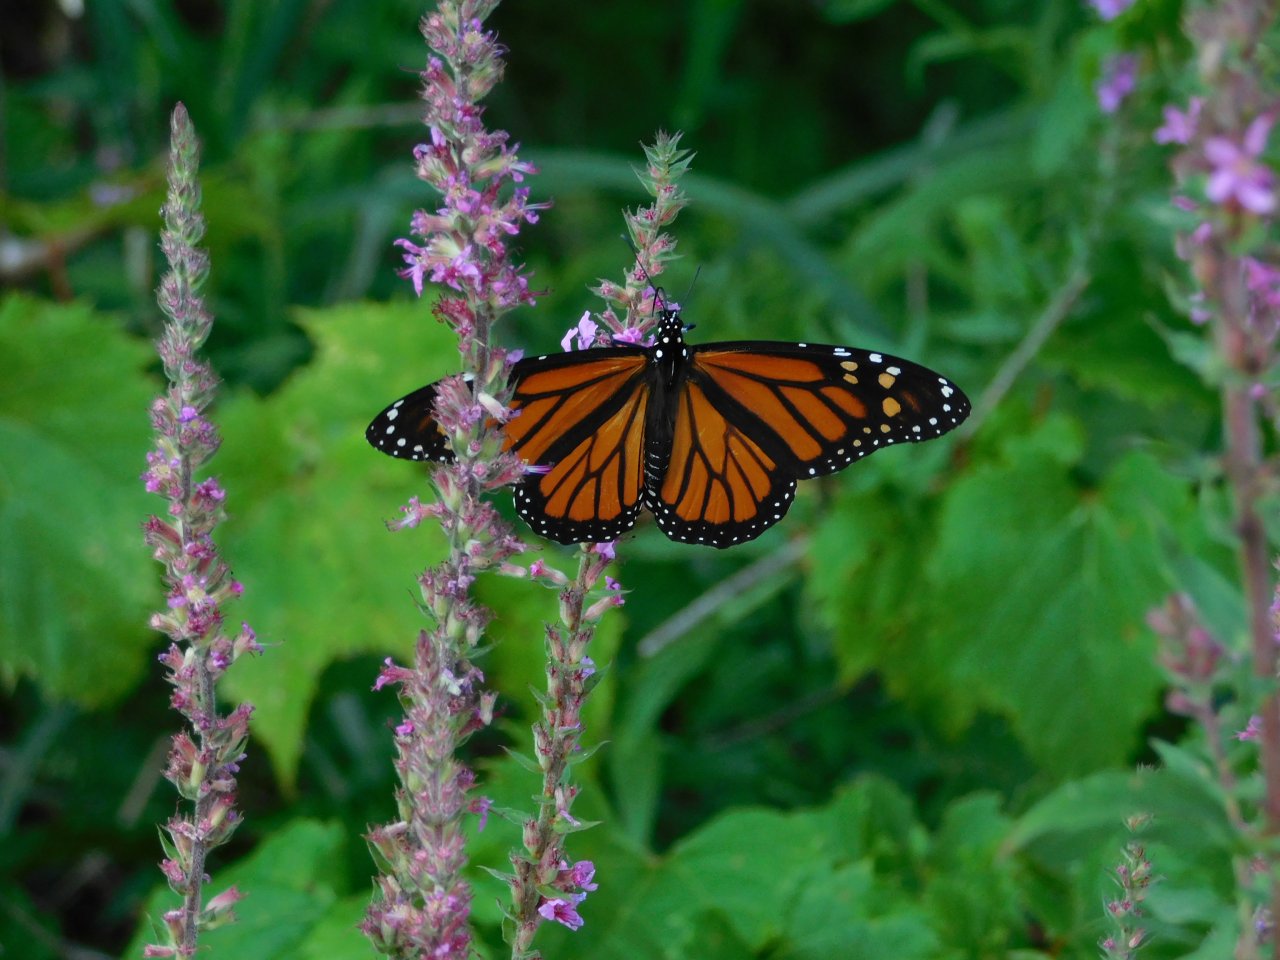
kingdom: Animalia
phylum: Arthropoda
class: Insecta
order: Lepidoptera
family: Nymphalidae
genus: Danaus
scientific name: Danaus plexippus
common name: Monarch
